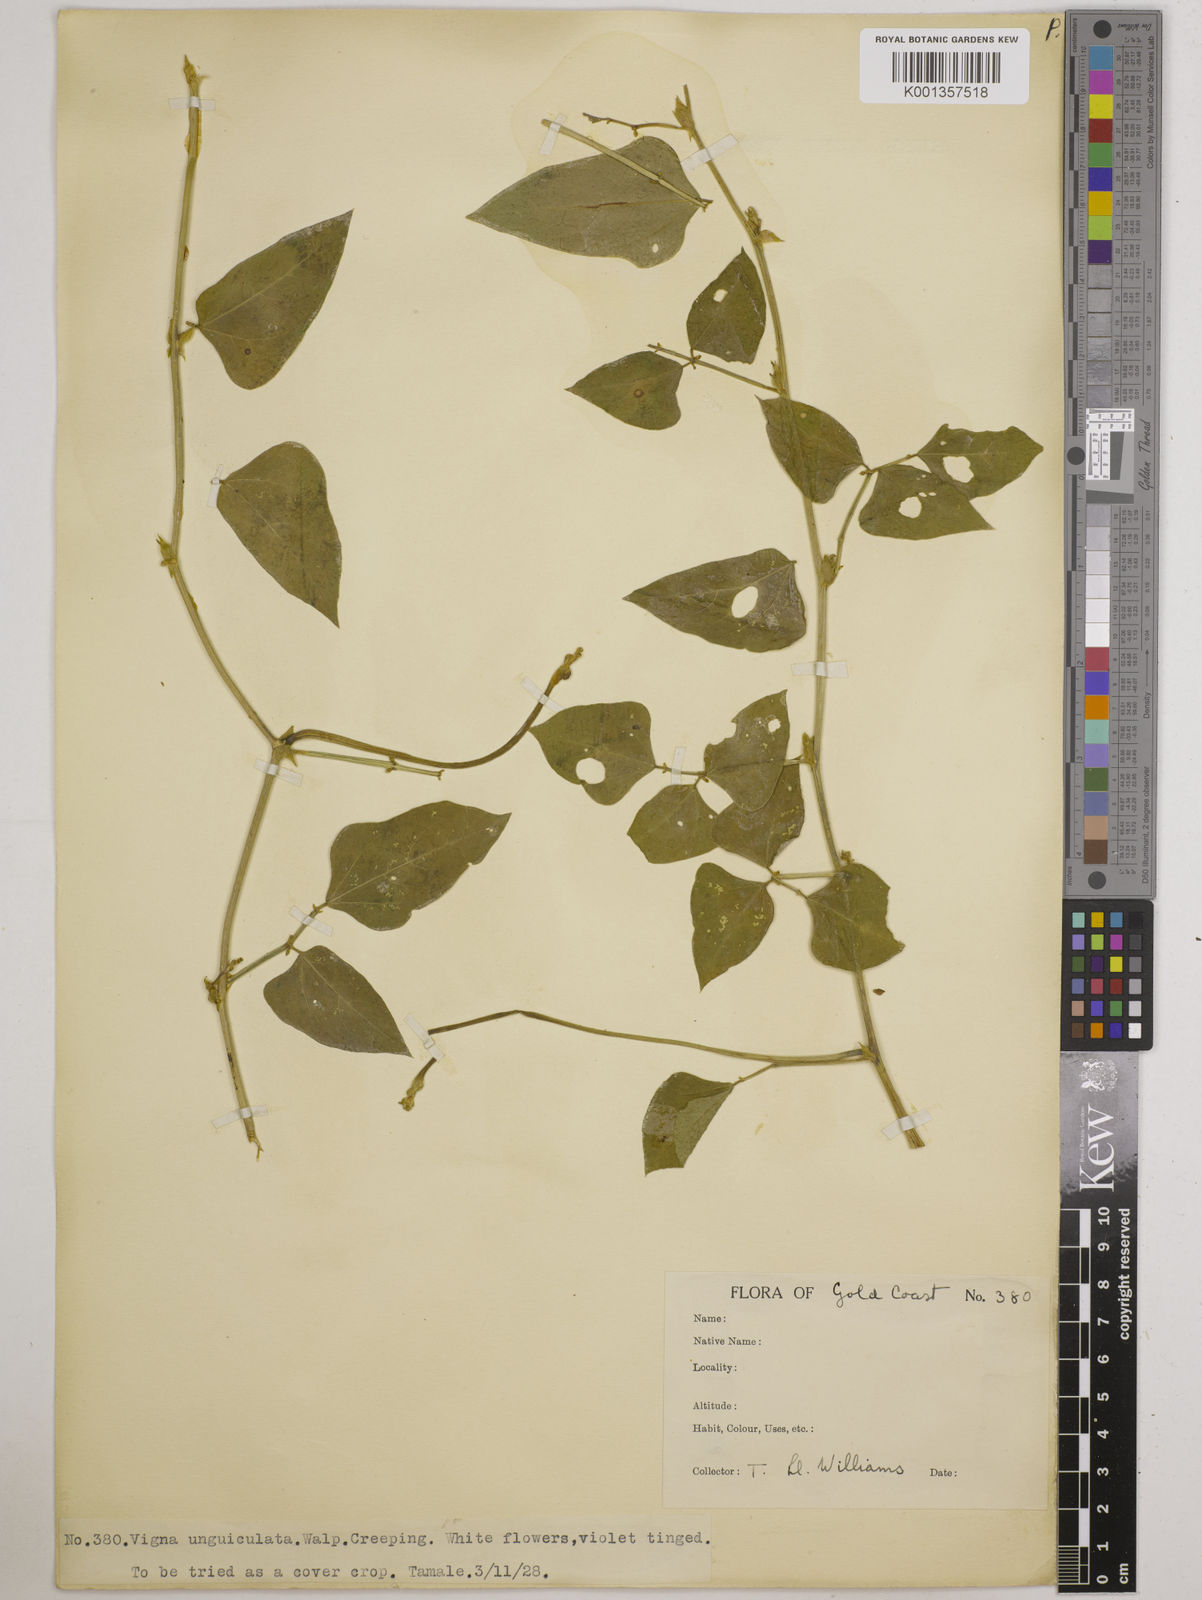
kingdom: Plantae
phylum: Tracheophyta
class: Magnoliopsida
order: Fabales
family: Fabaceae
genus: Vigna
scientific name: Vigna
